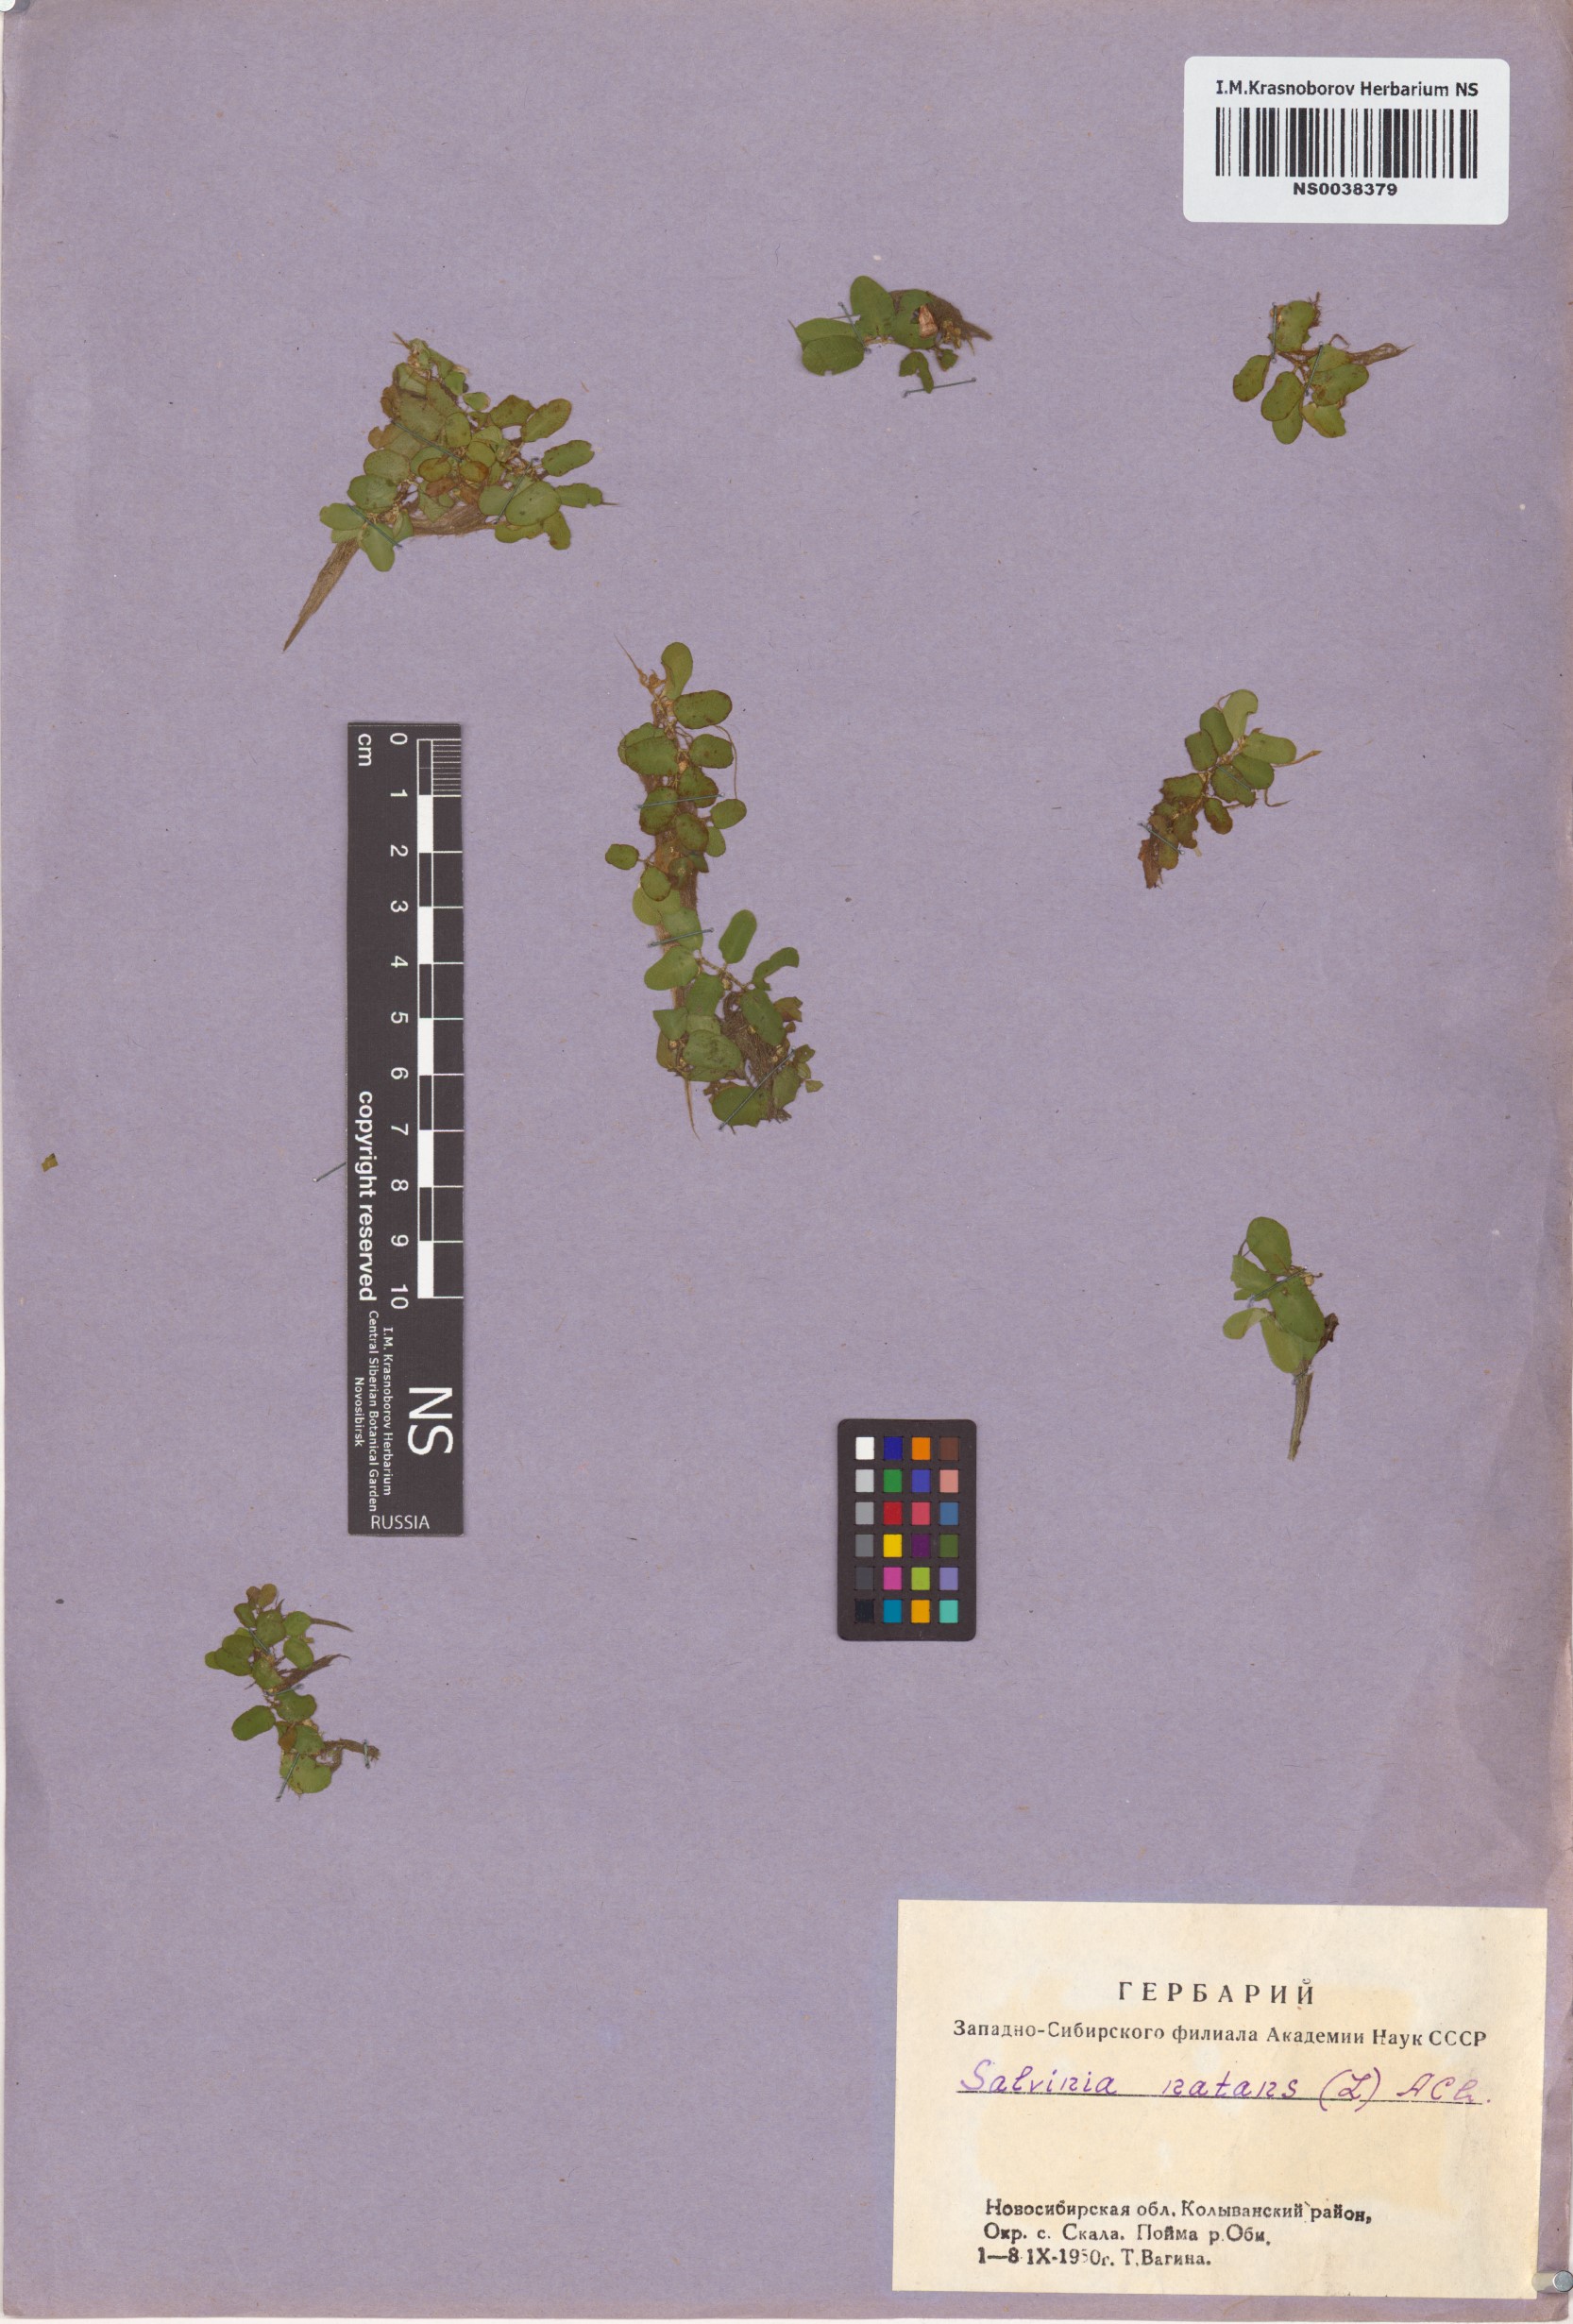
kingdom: Plantae
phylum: Tracheophyta
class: Polypodiopsida
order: Salviniales
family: Salviniaceae
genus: Salvinia
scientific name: Salvinia natans
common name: Floating fern
